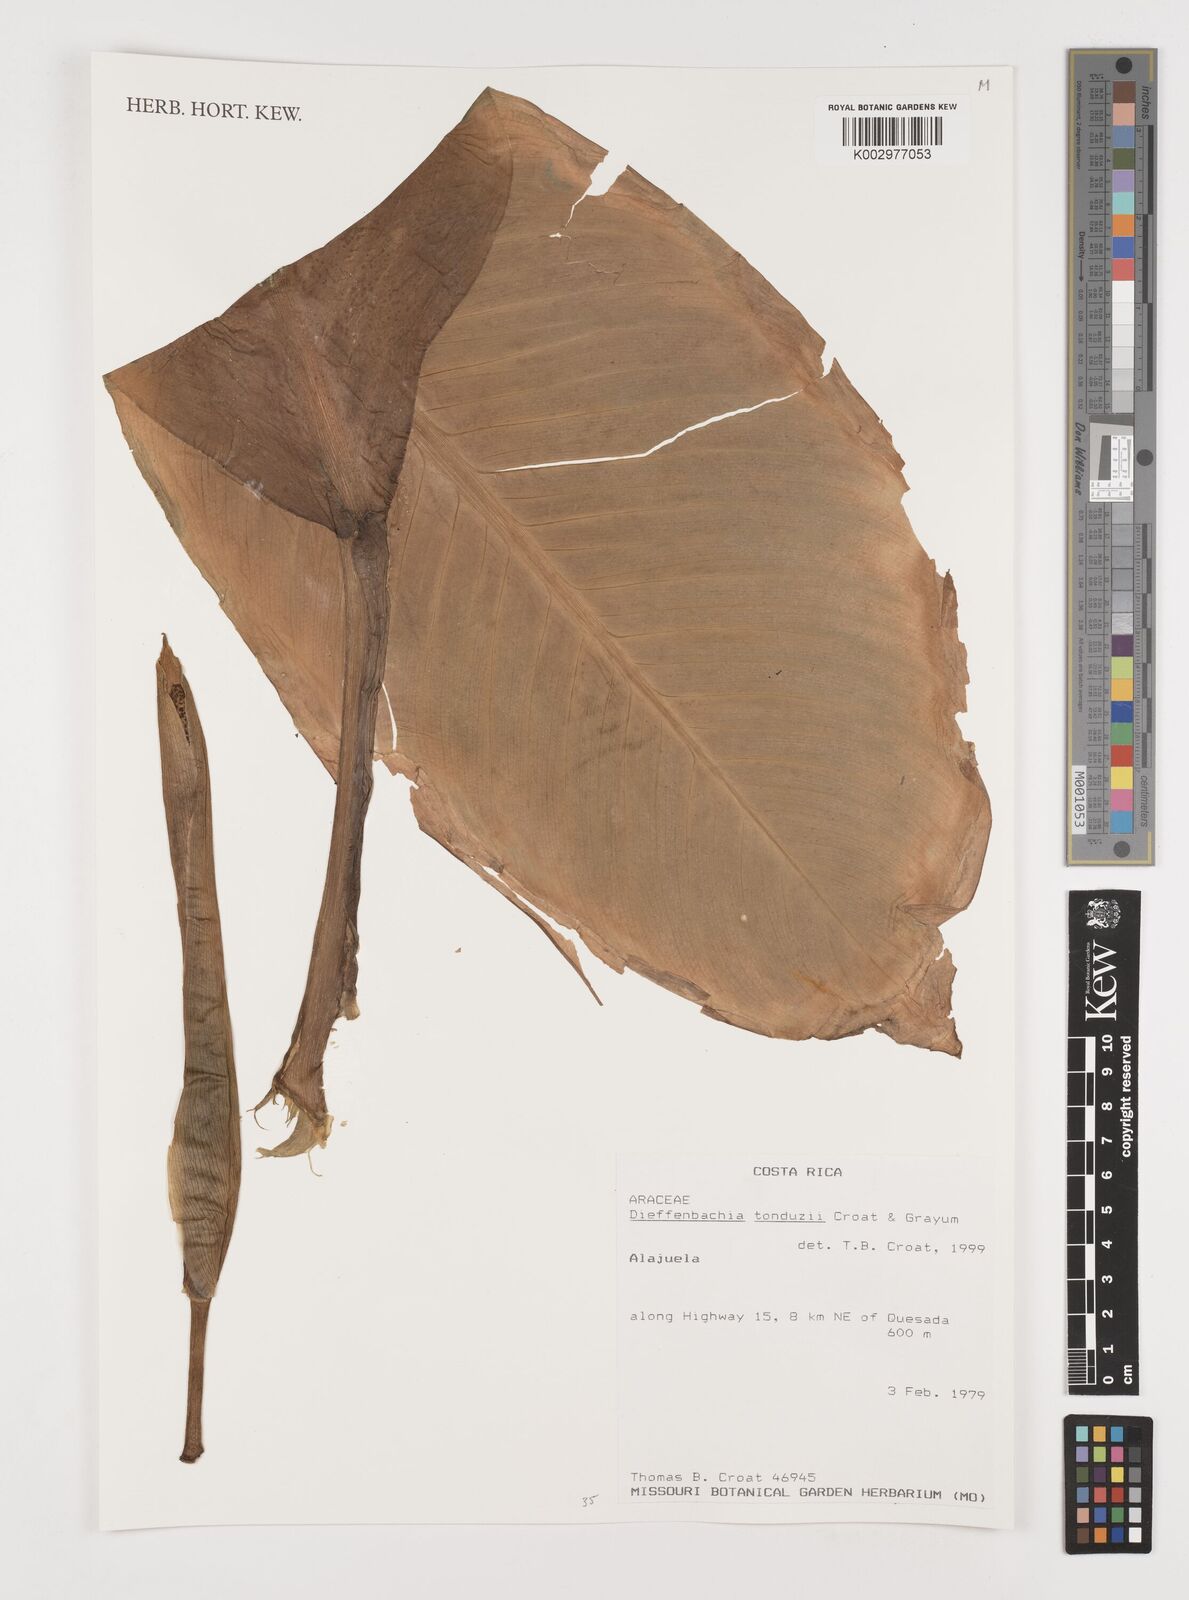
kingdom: Plantae
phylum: Tracheophyta
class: Liliopsida
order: Alismatales
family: Araceae
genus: Dieffenbachia
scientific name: Dieffenbachia tonduzii
